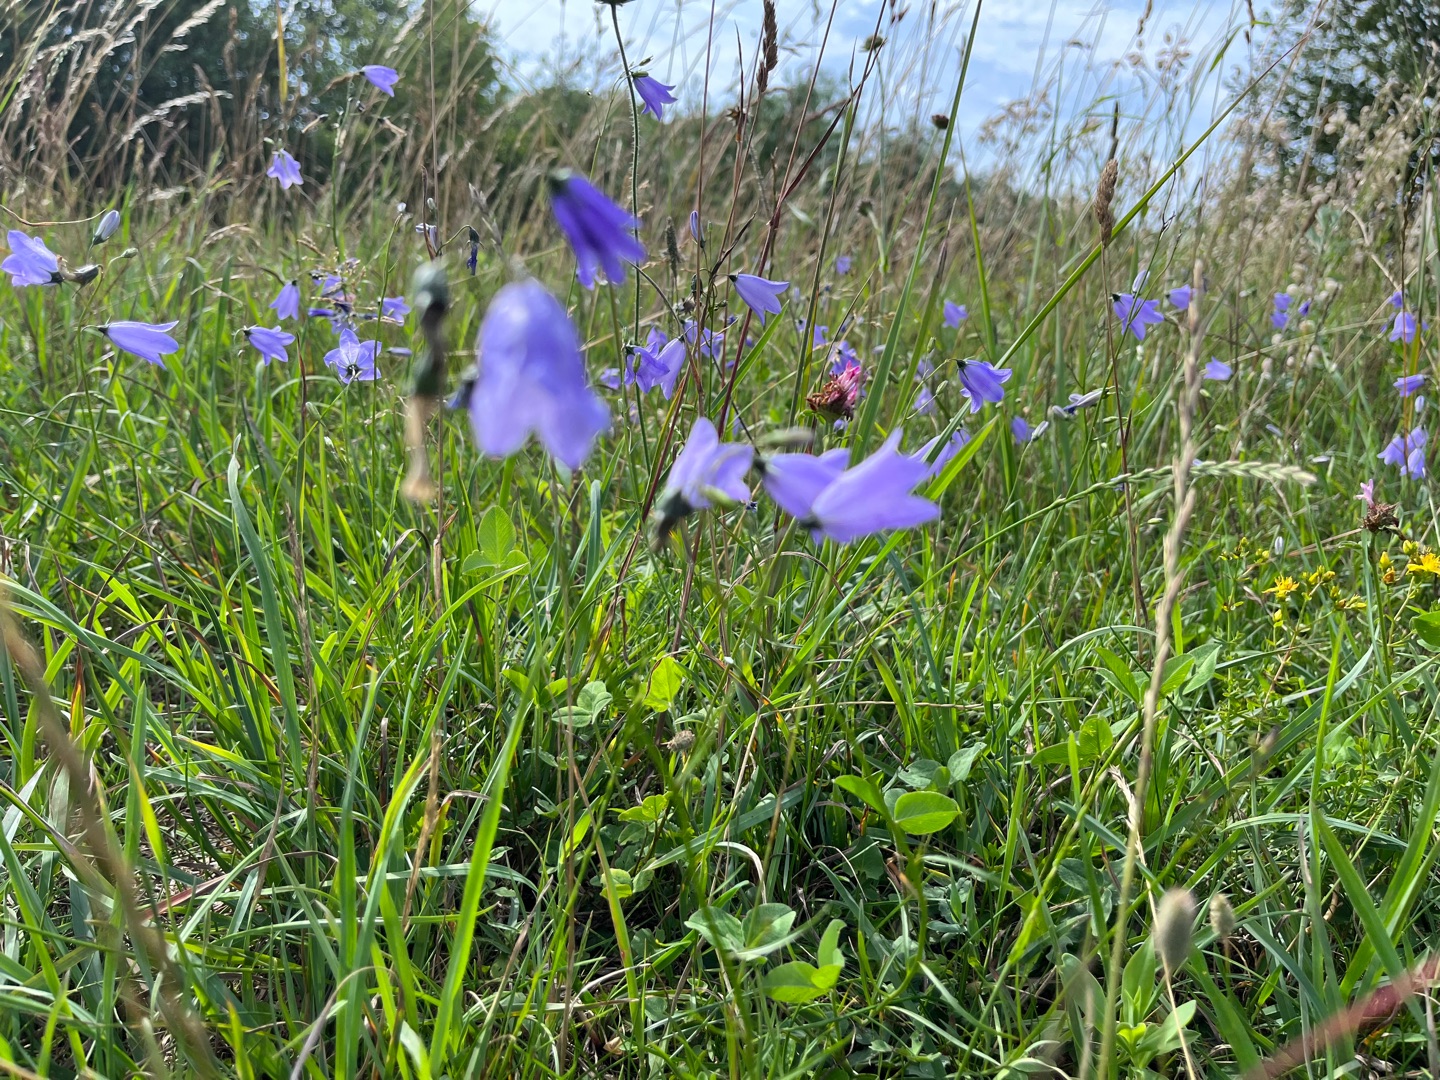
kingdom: Plantae
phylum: Tracheophyta
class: Magnoliopsida
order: Asterales
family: Campanulaceae
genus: Campanula
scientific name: Campanula rotundifolia
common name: Liden klokke
